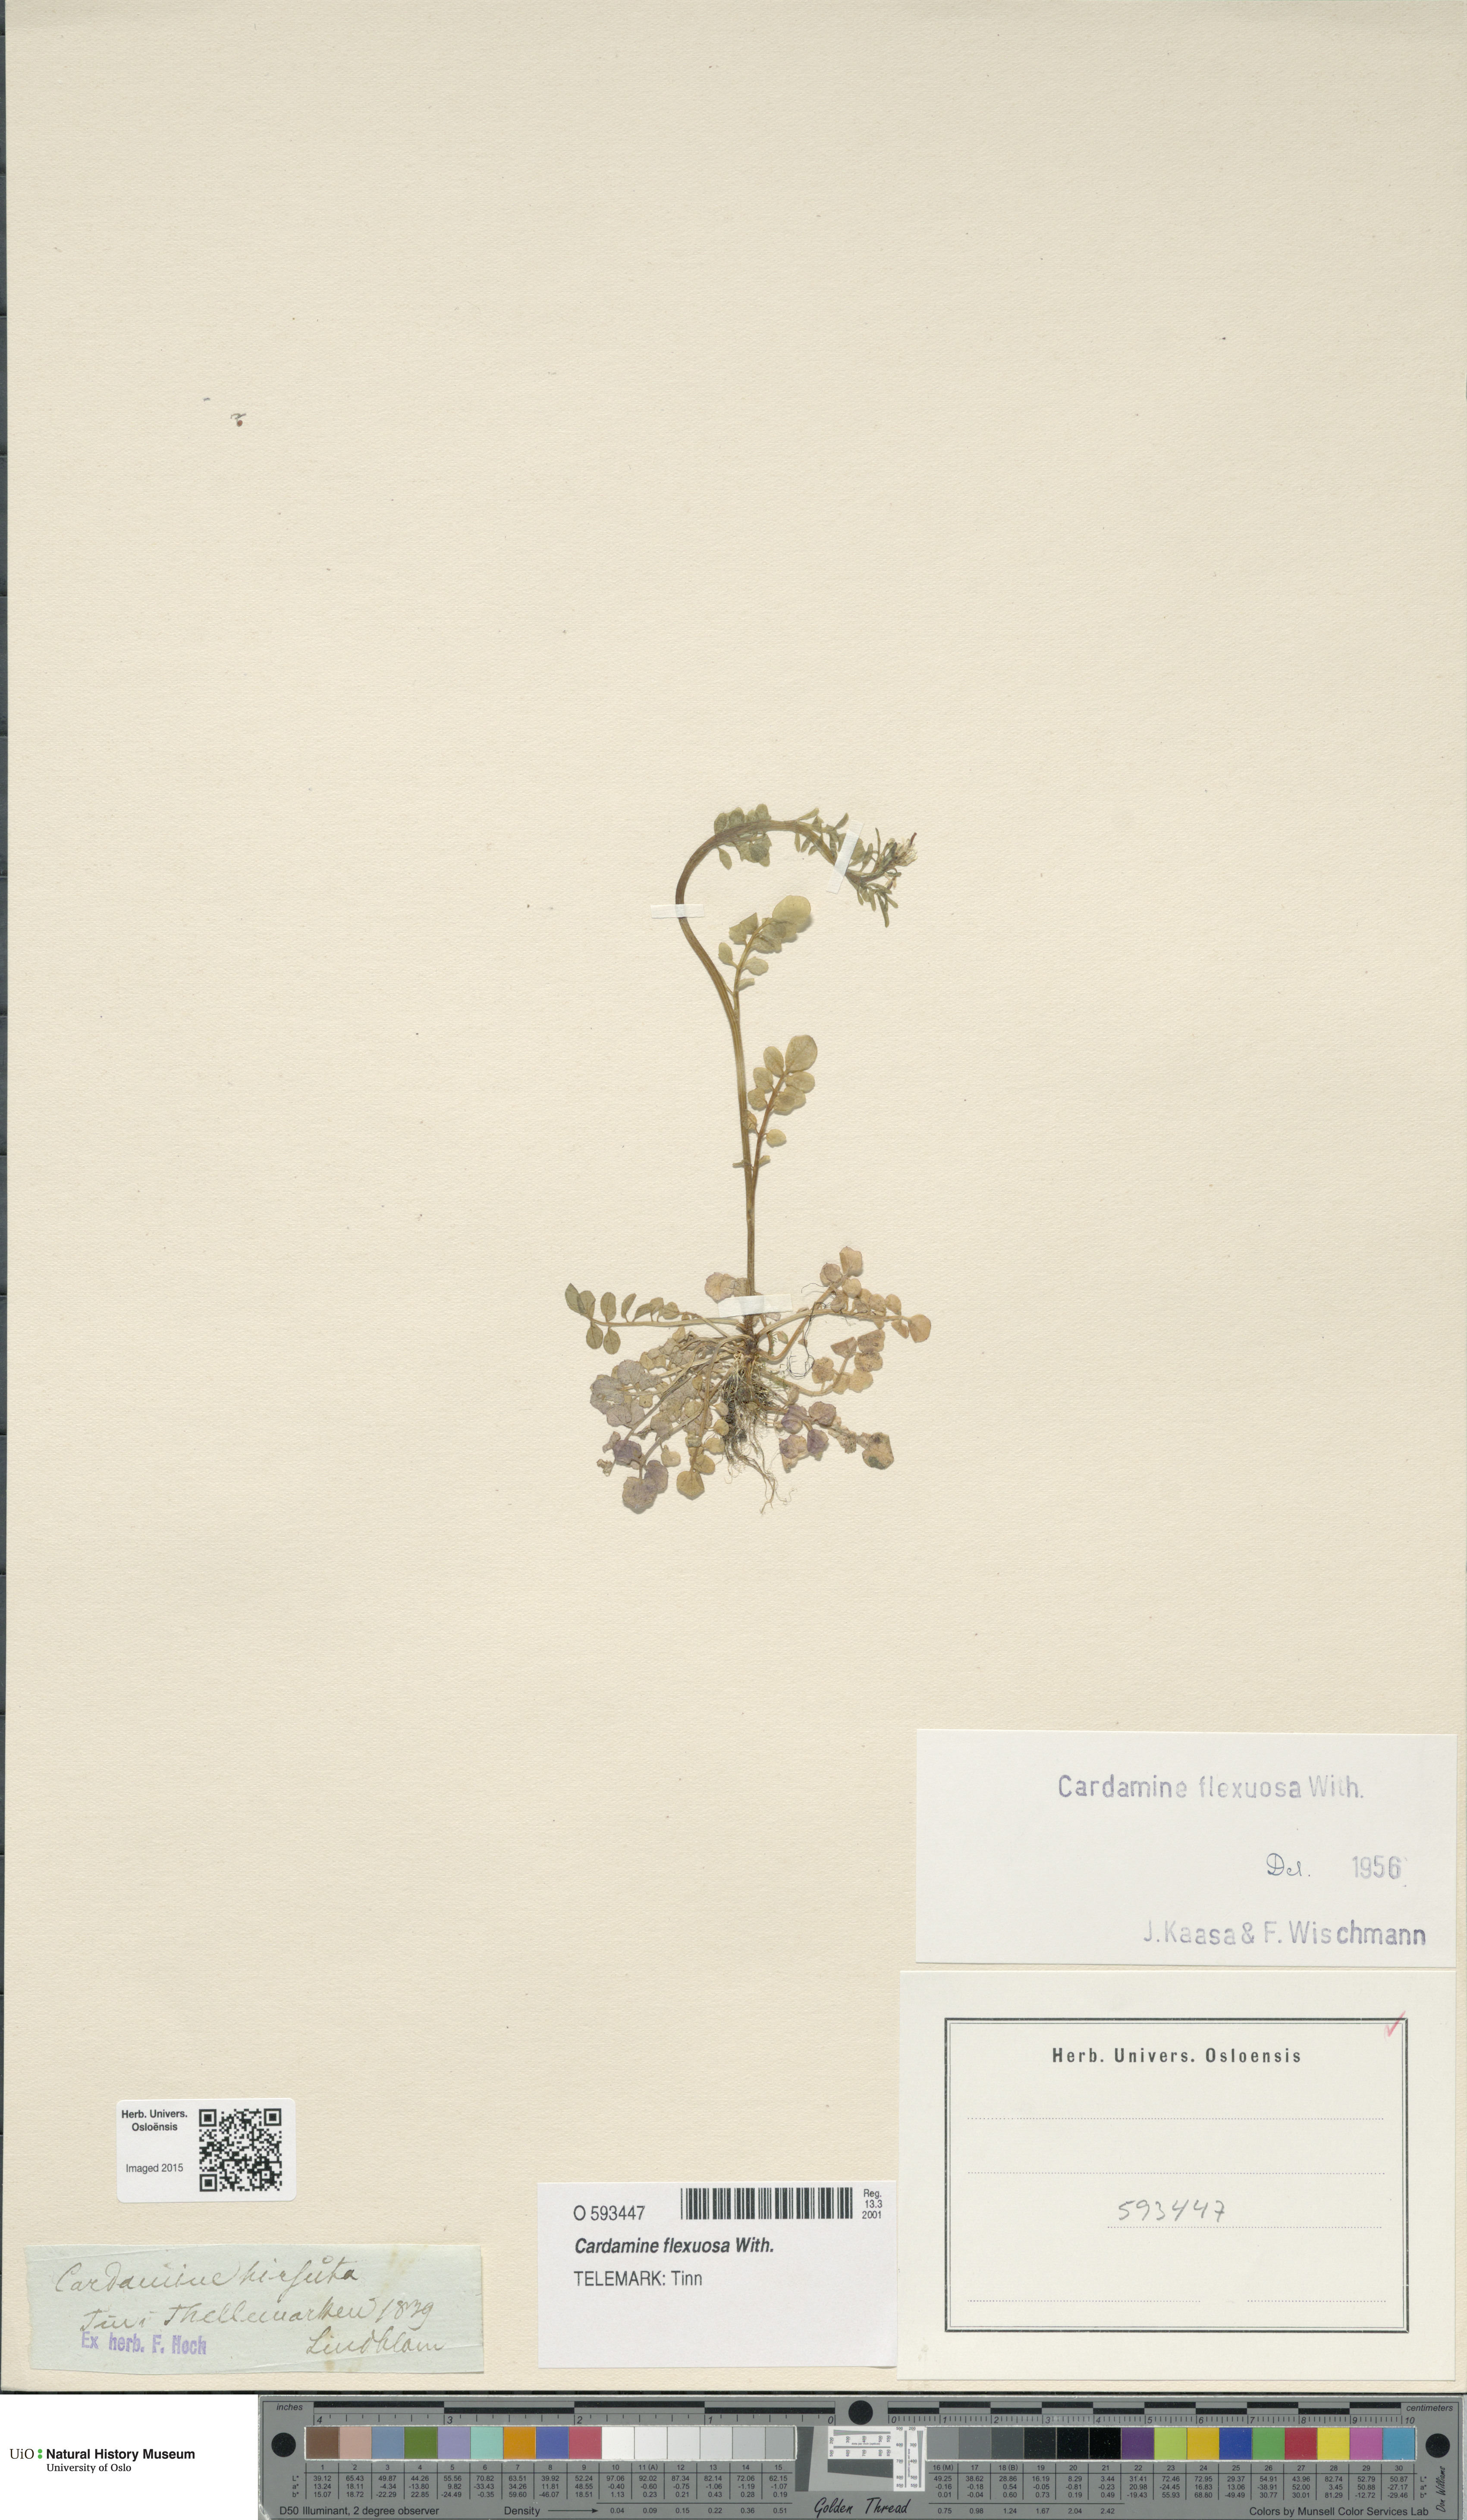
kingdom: Plantae
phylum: Tracheophyta
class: Magnoliopsida
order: Brassicales
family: Brassicaceae
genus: Cardamine
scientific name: Cardamine flexuosa
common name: Woodland bittercress
